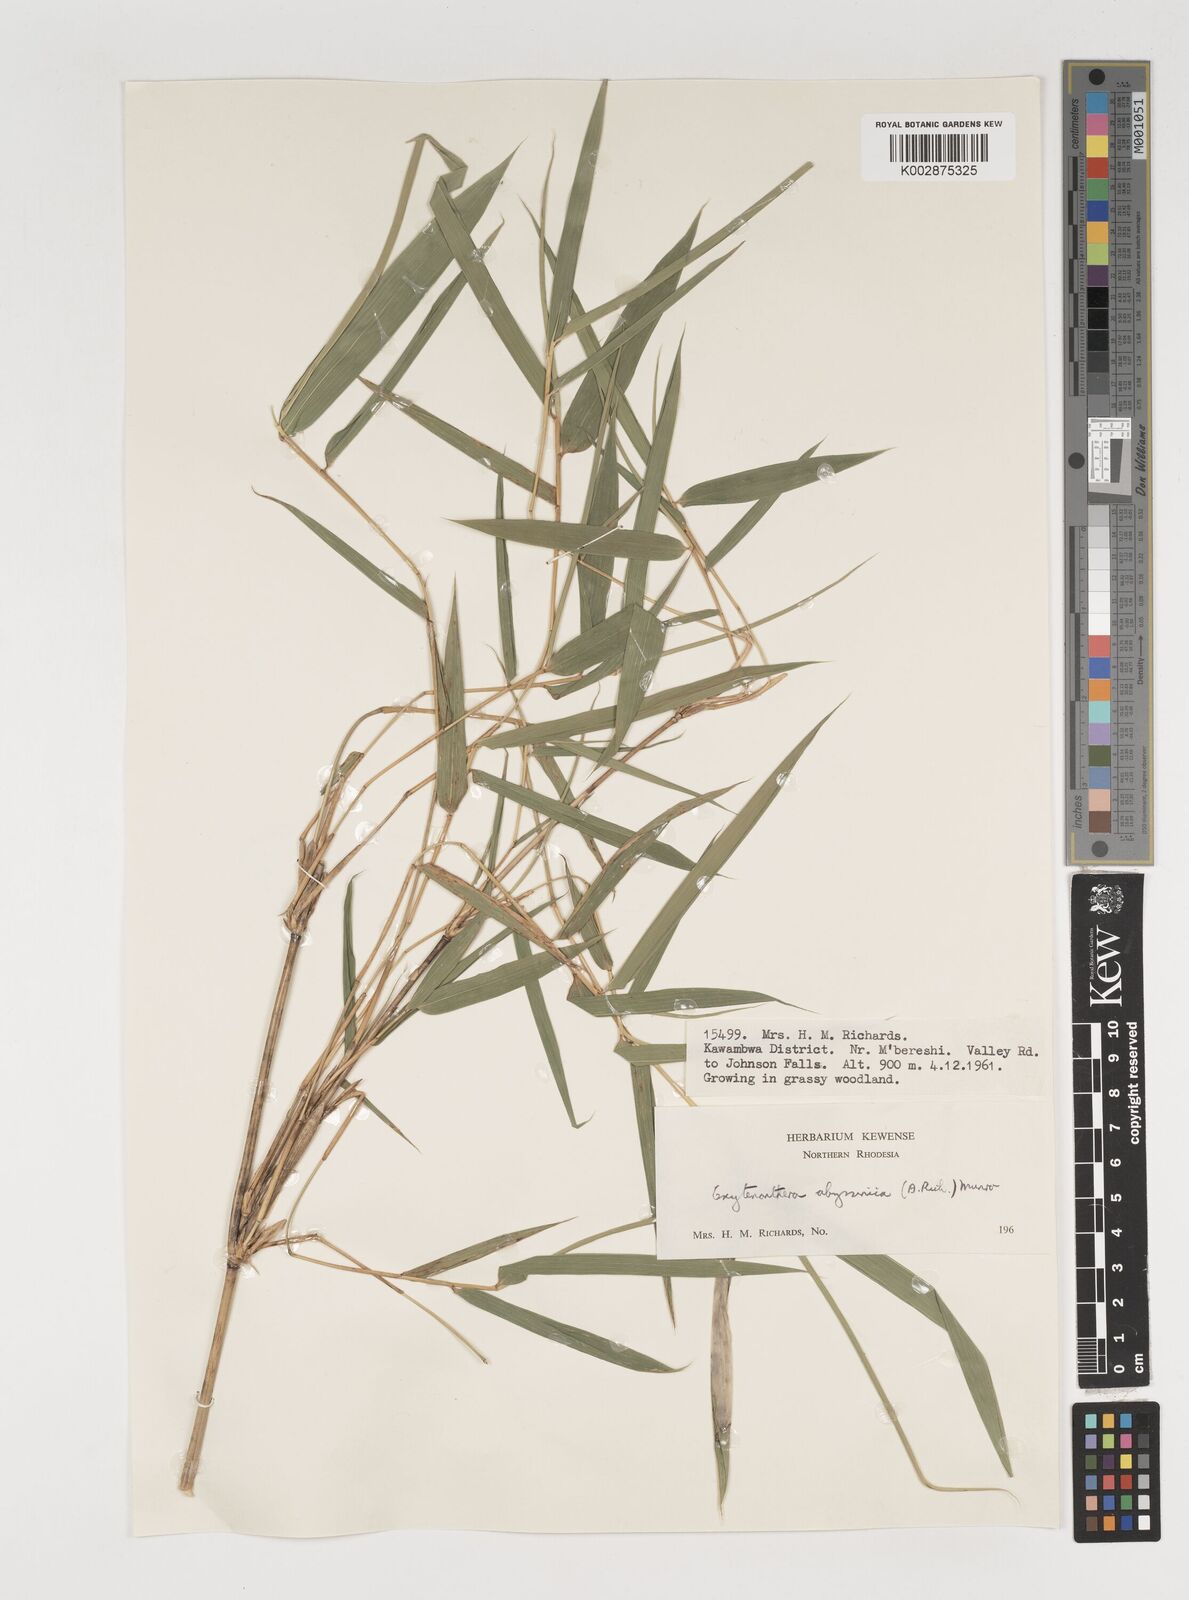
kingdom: Plantae
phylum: Tracheophyta
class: Liliopsida
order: Poales
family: Poaceae
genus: Oxytenanthera
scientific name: Oxytenanthera abyssinica
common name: Wine bamboo
